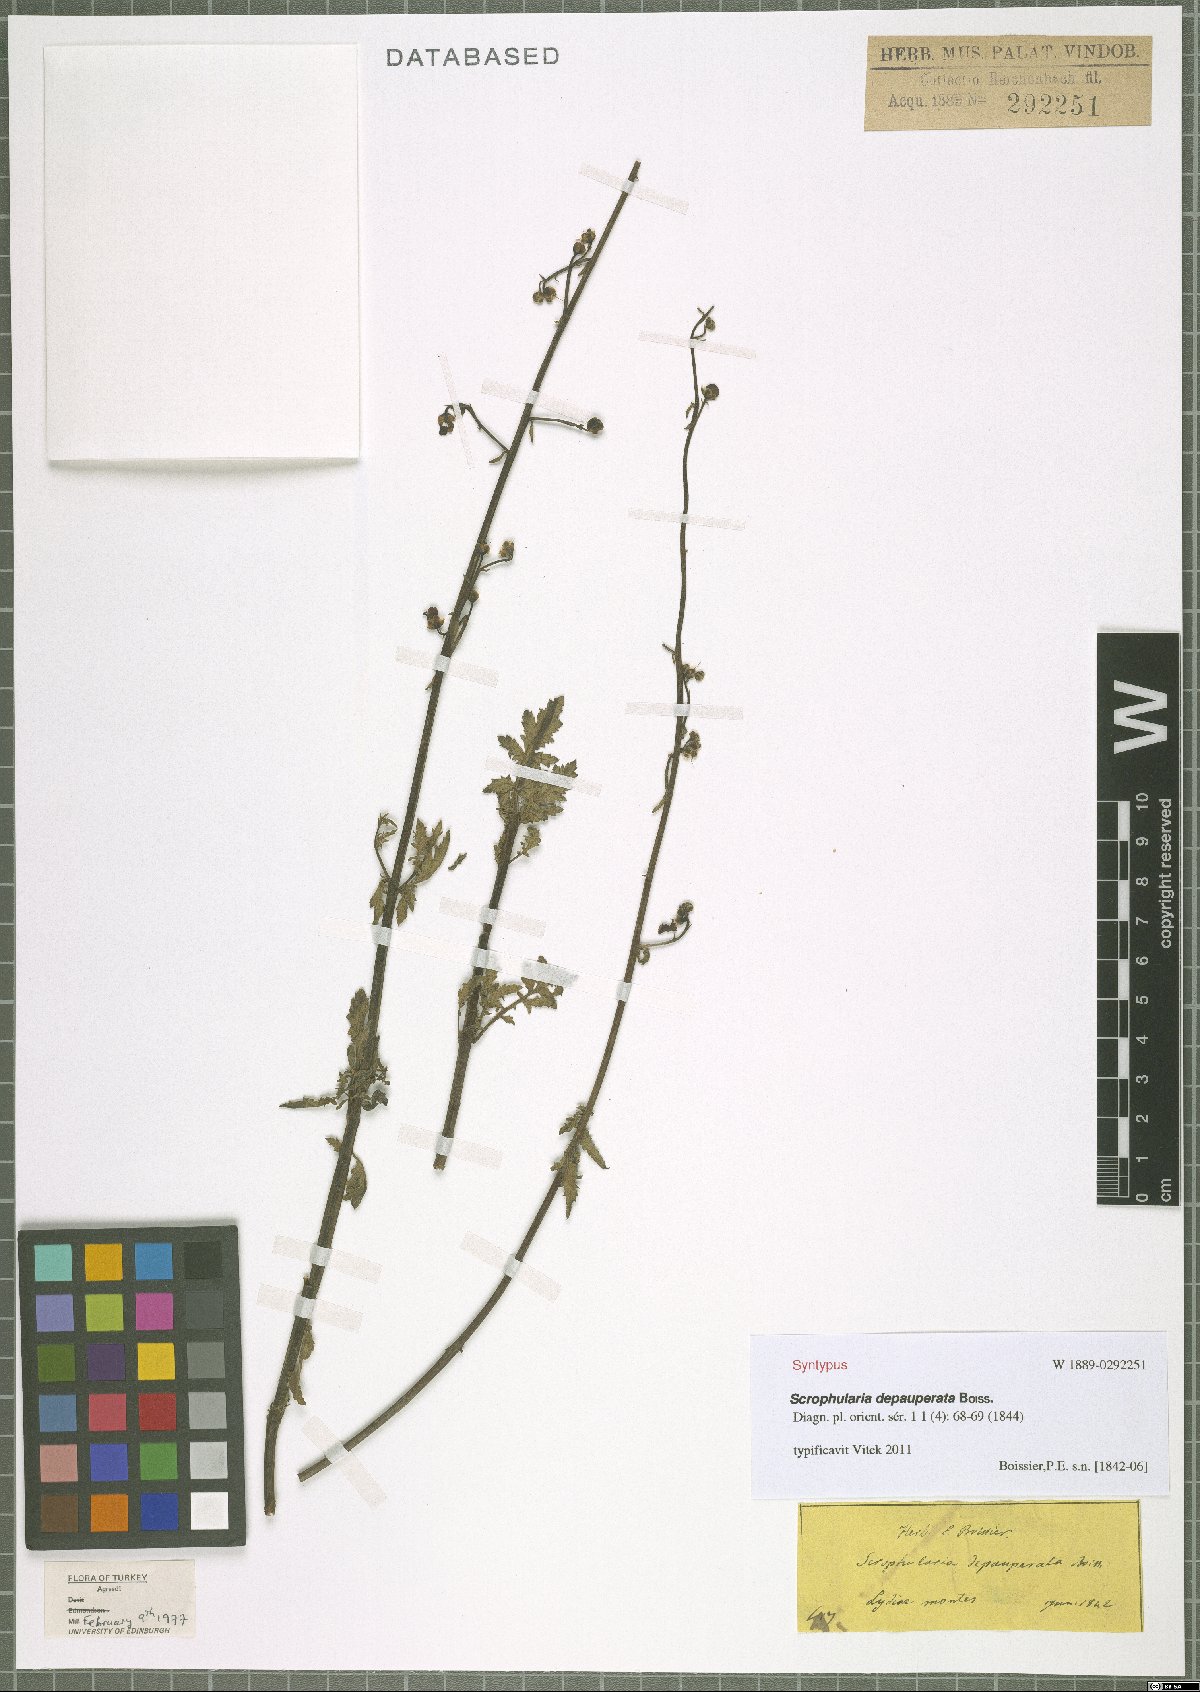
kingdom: Plantae
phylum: Tracheophyta
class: Magnoliopsida
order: Lamiales
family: Scrophulariaceae
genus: Scrophularia
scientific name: Scrophularia depauperata
